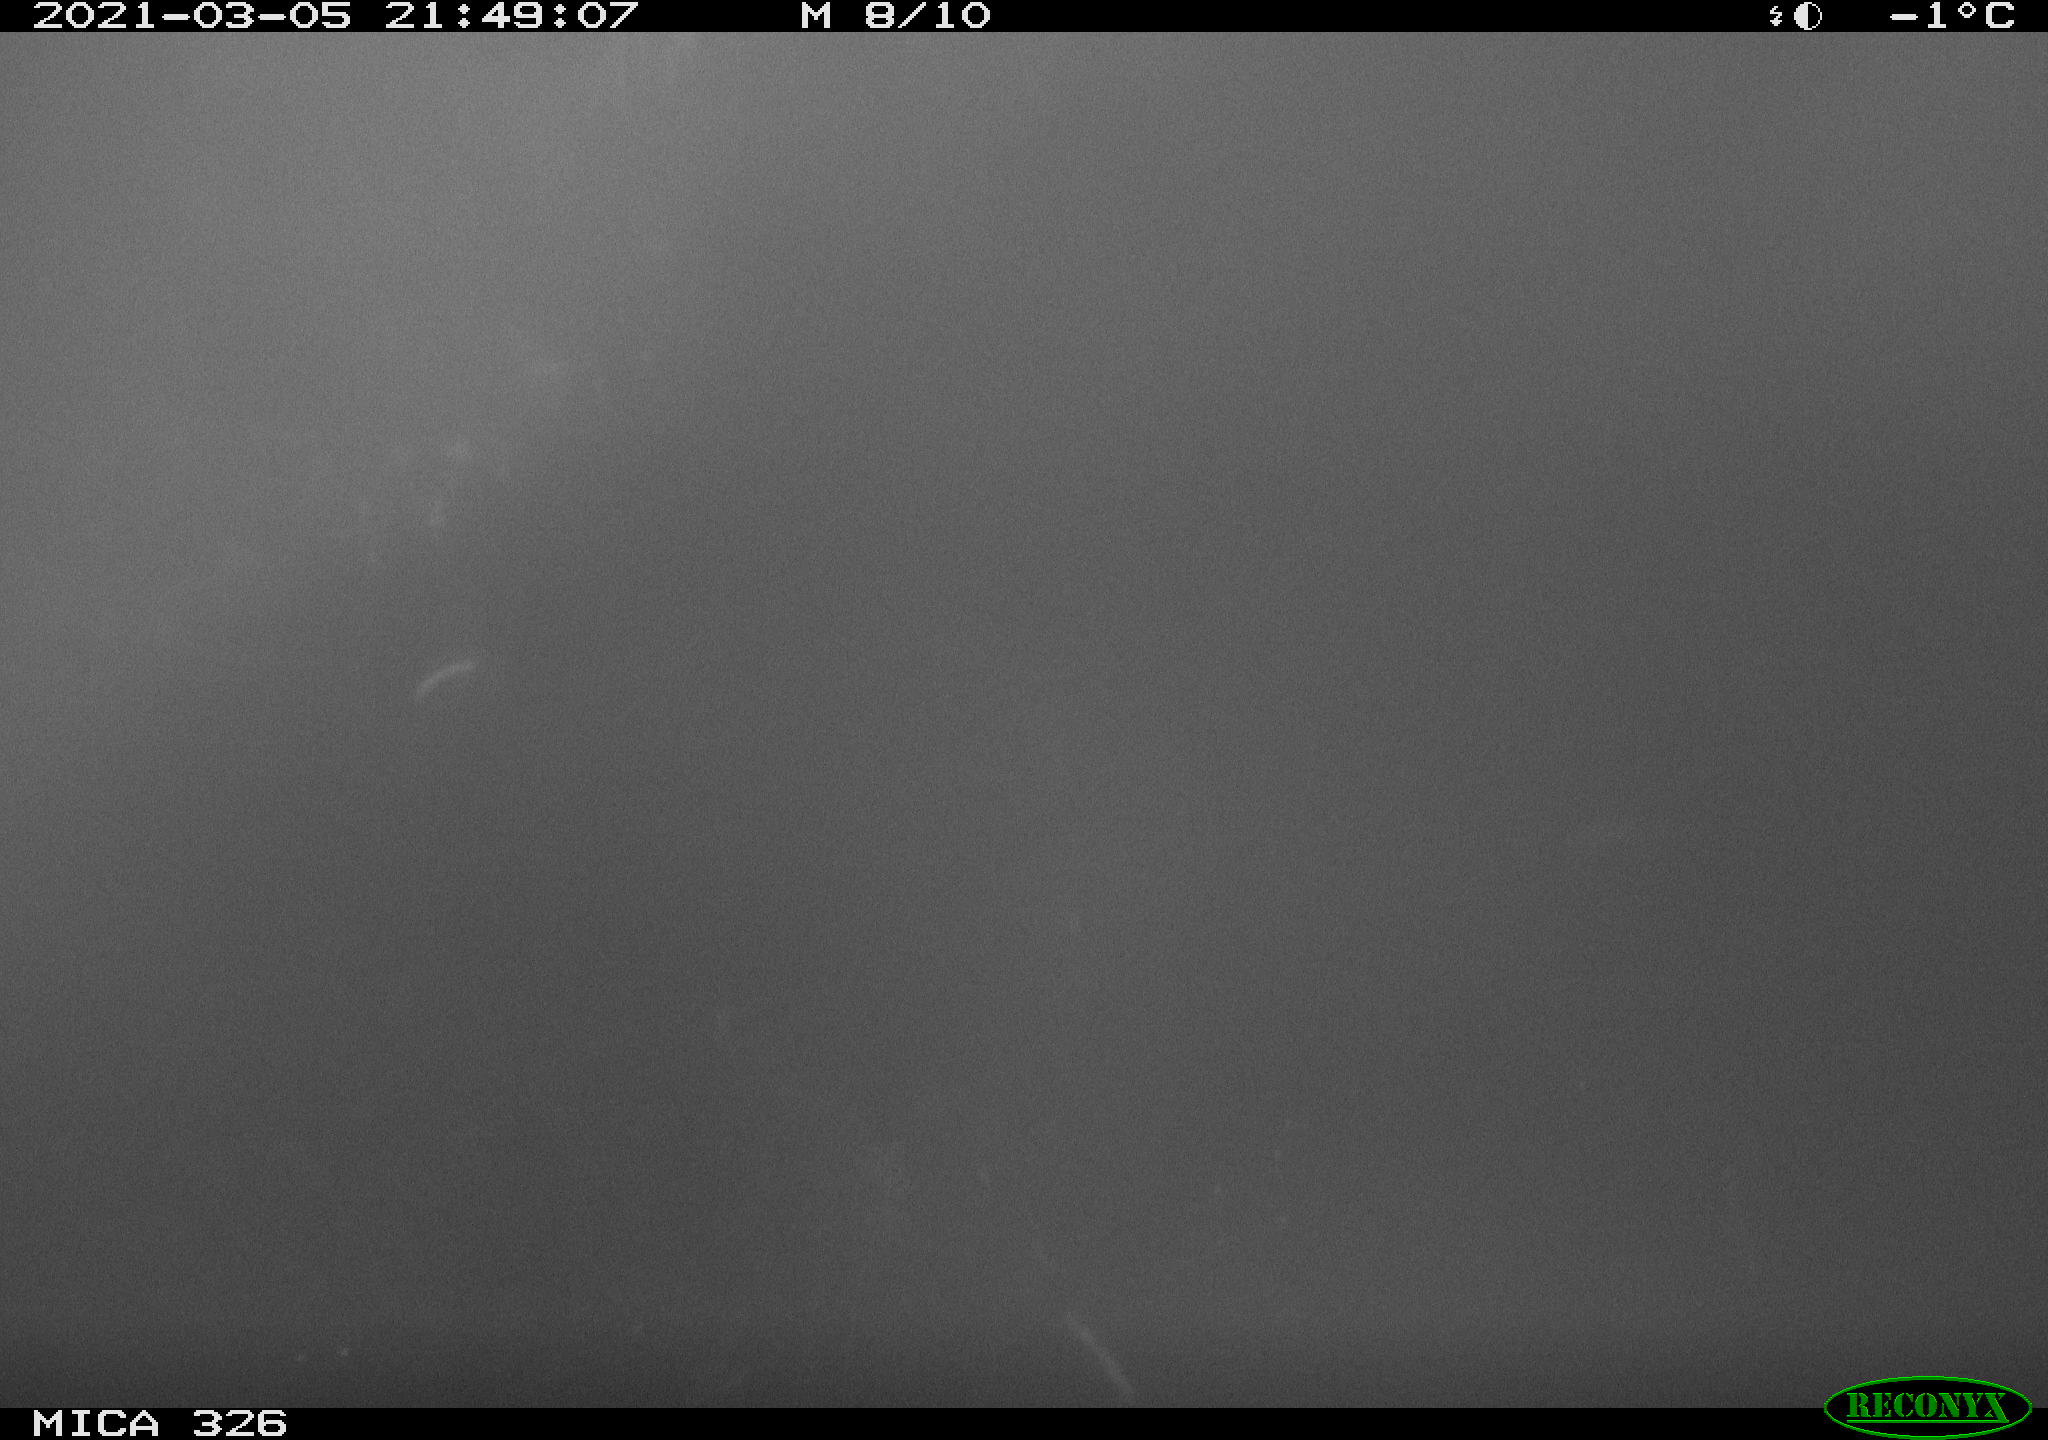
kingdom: Animalia
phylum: Chordata
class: Mammalia
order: Rodentia
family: Myocastoridae
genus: Myocastor
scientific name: Myocastor coypus
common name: Coypu
